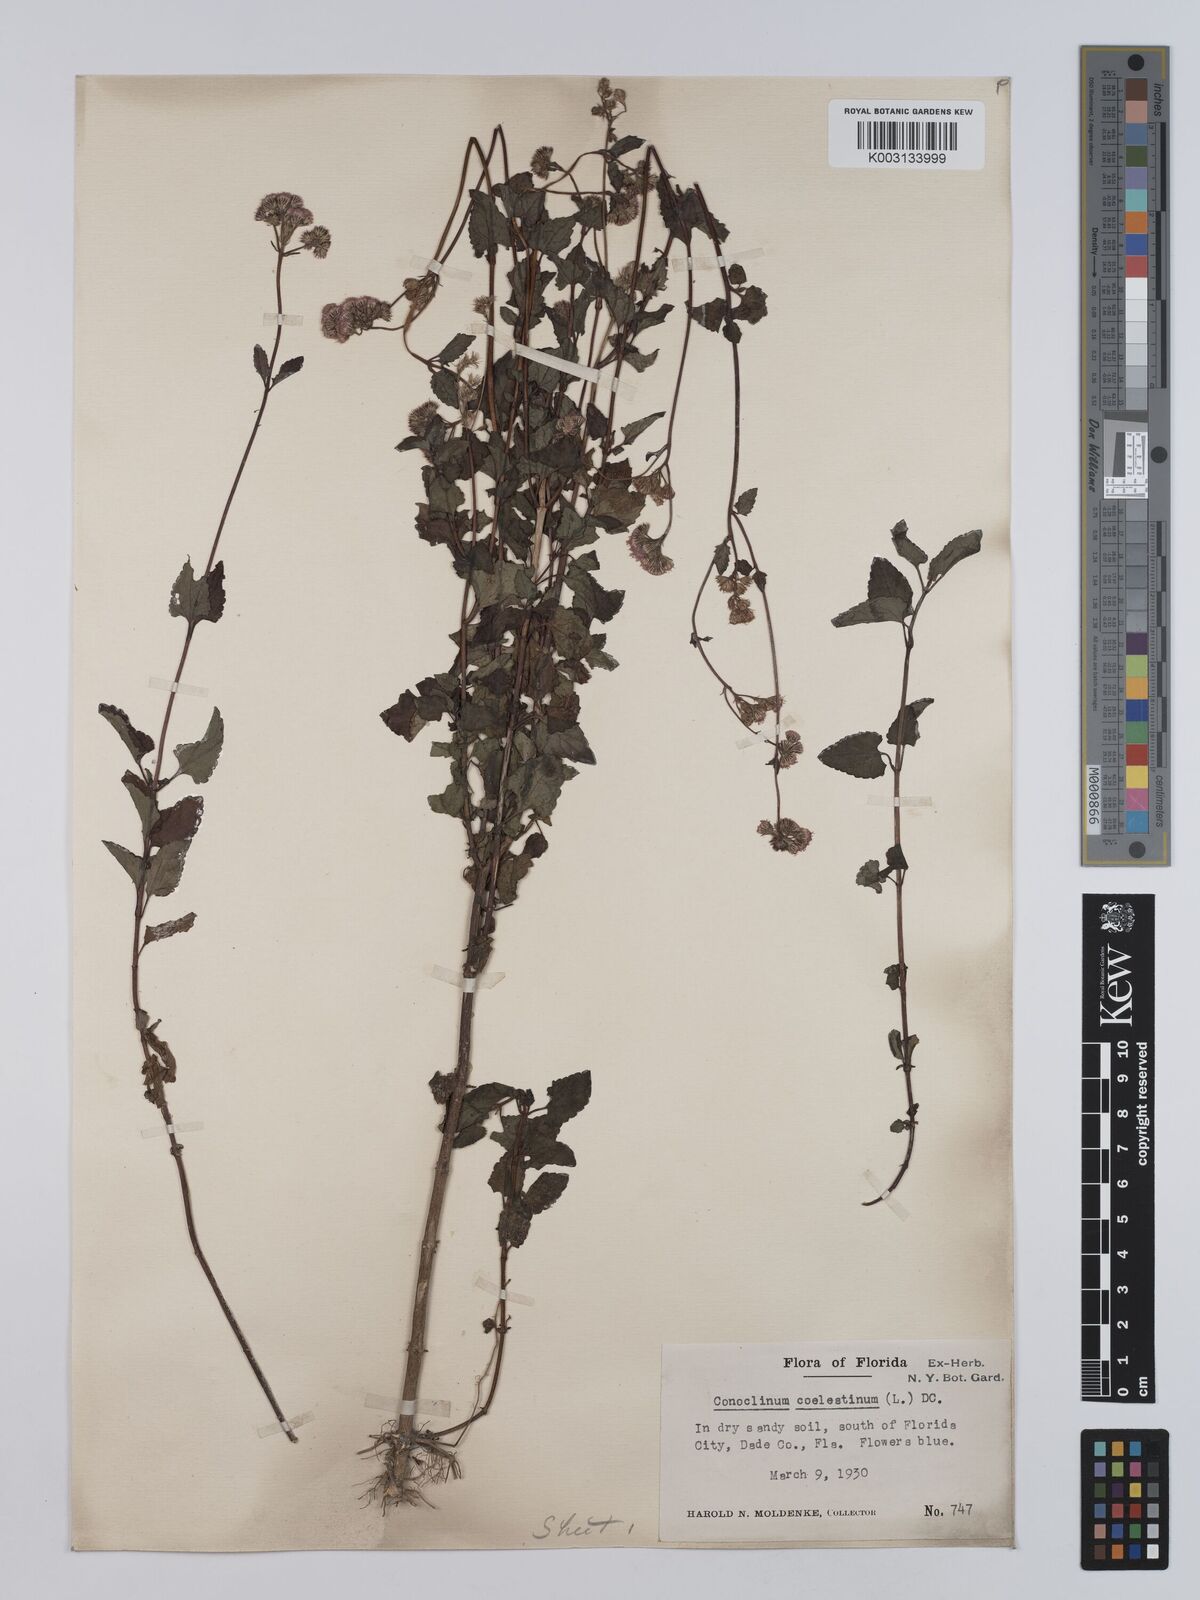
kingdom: Plantae
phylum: Tracheophyta
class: Magnoliopsida
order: Asterales
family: Asteraceae
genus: Conoclinium
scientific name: Conoclinium coelestinum
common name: Blue mistflower
